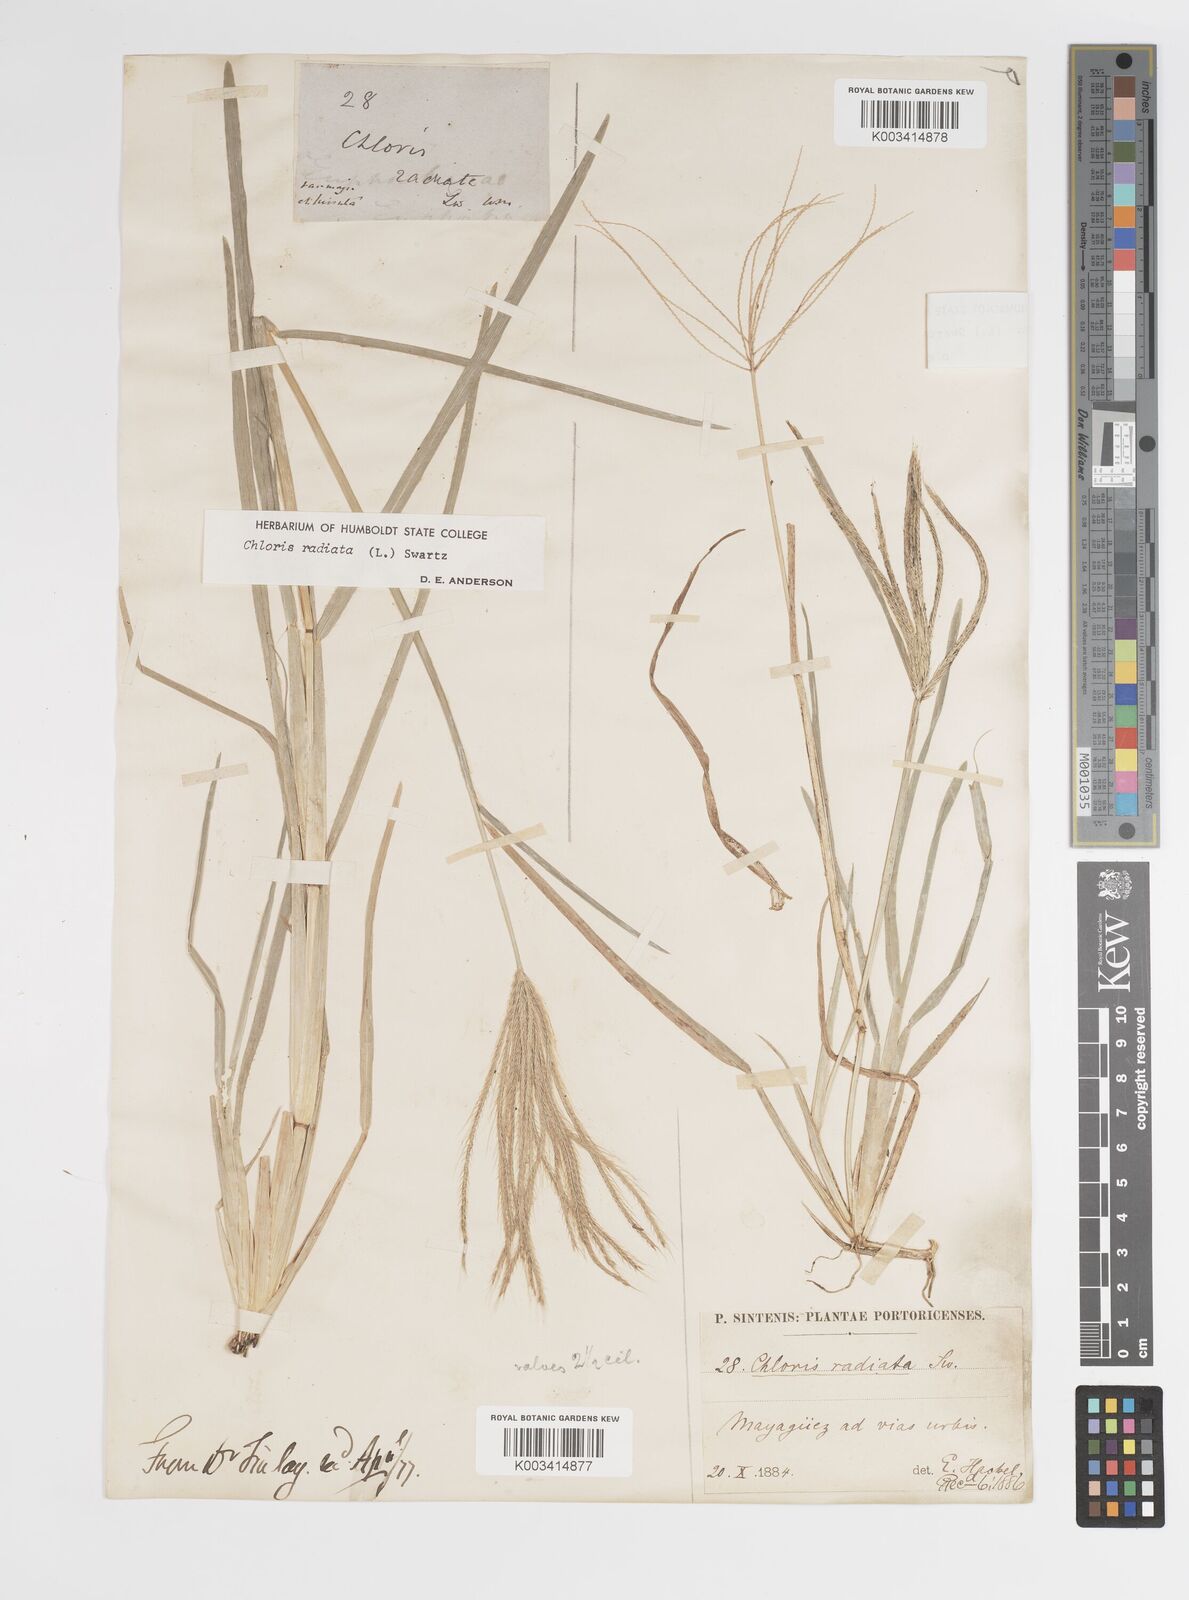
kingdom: Plantae
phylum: Tracheophyta
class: Liliopsida
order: Poales
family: Poaceae
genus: Chloris
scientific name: Chloris radiata
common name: Radiate fingergrass
